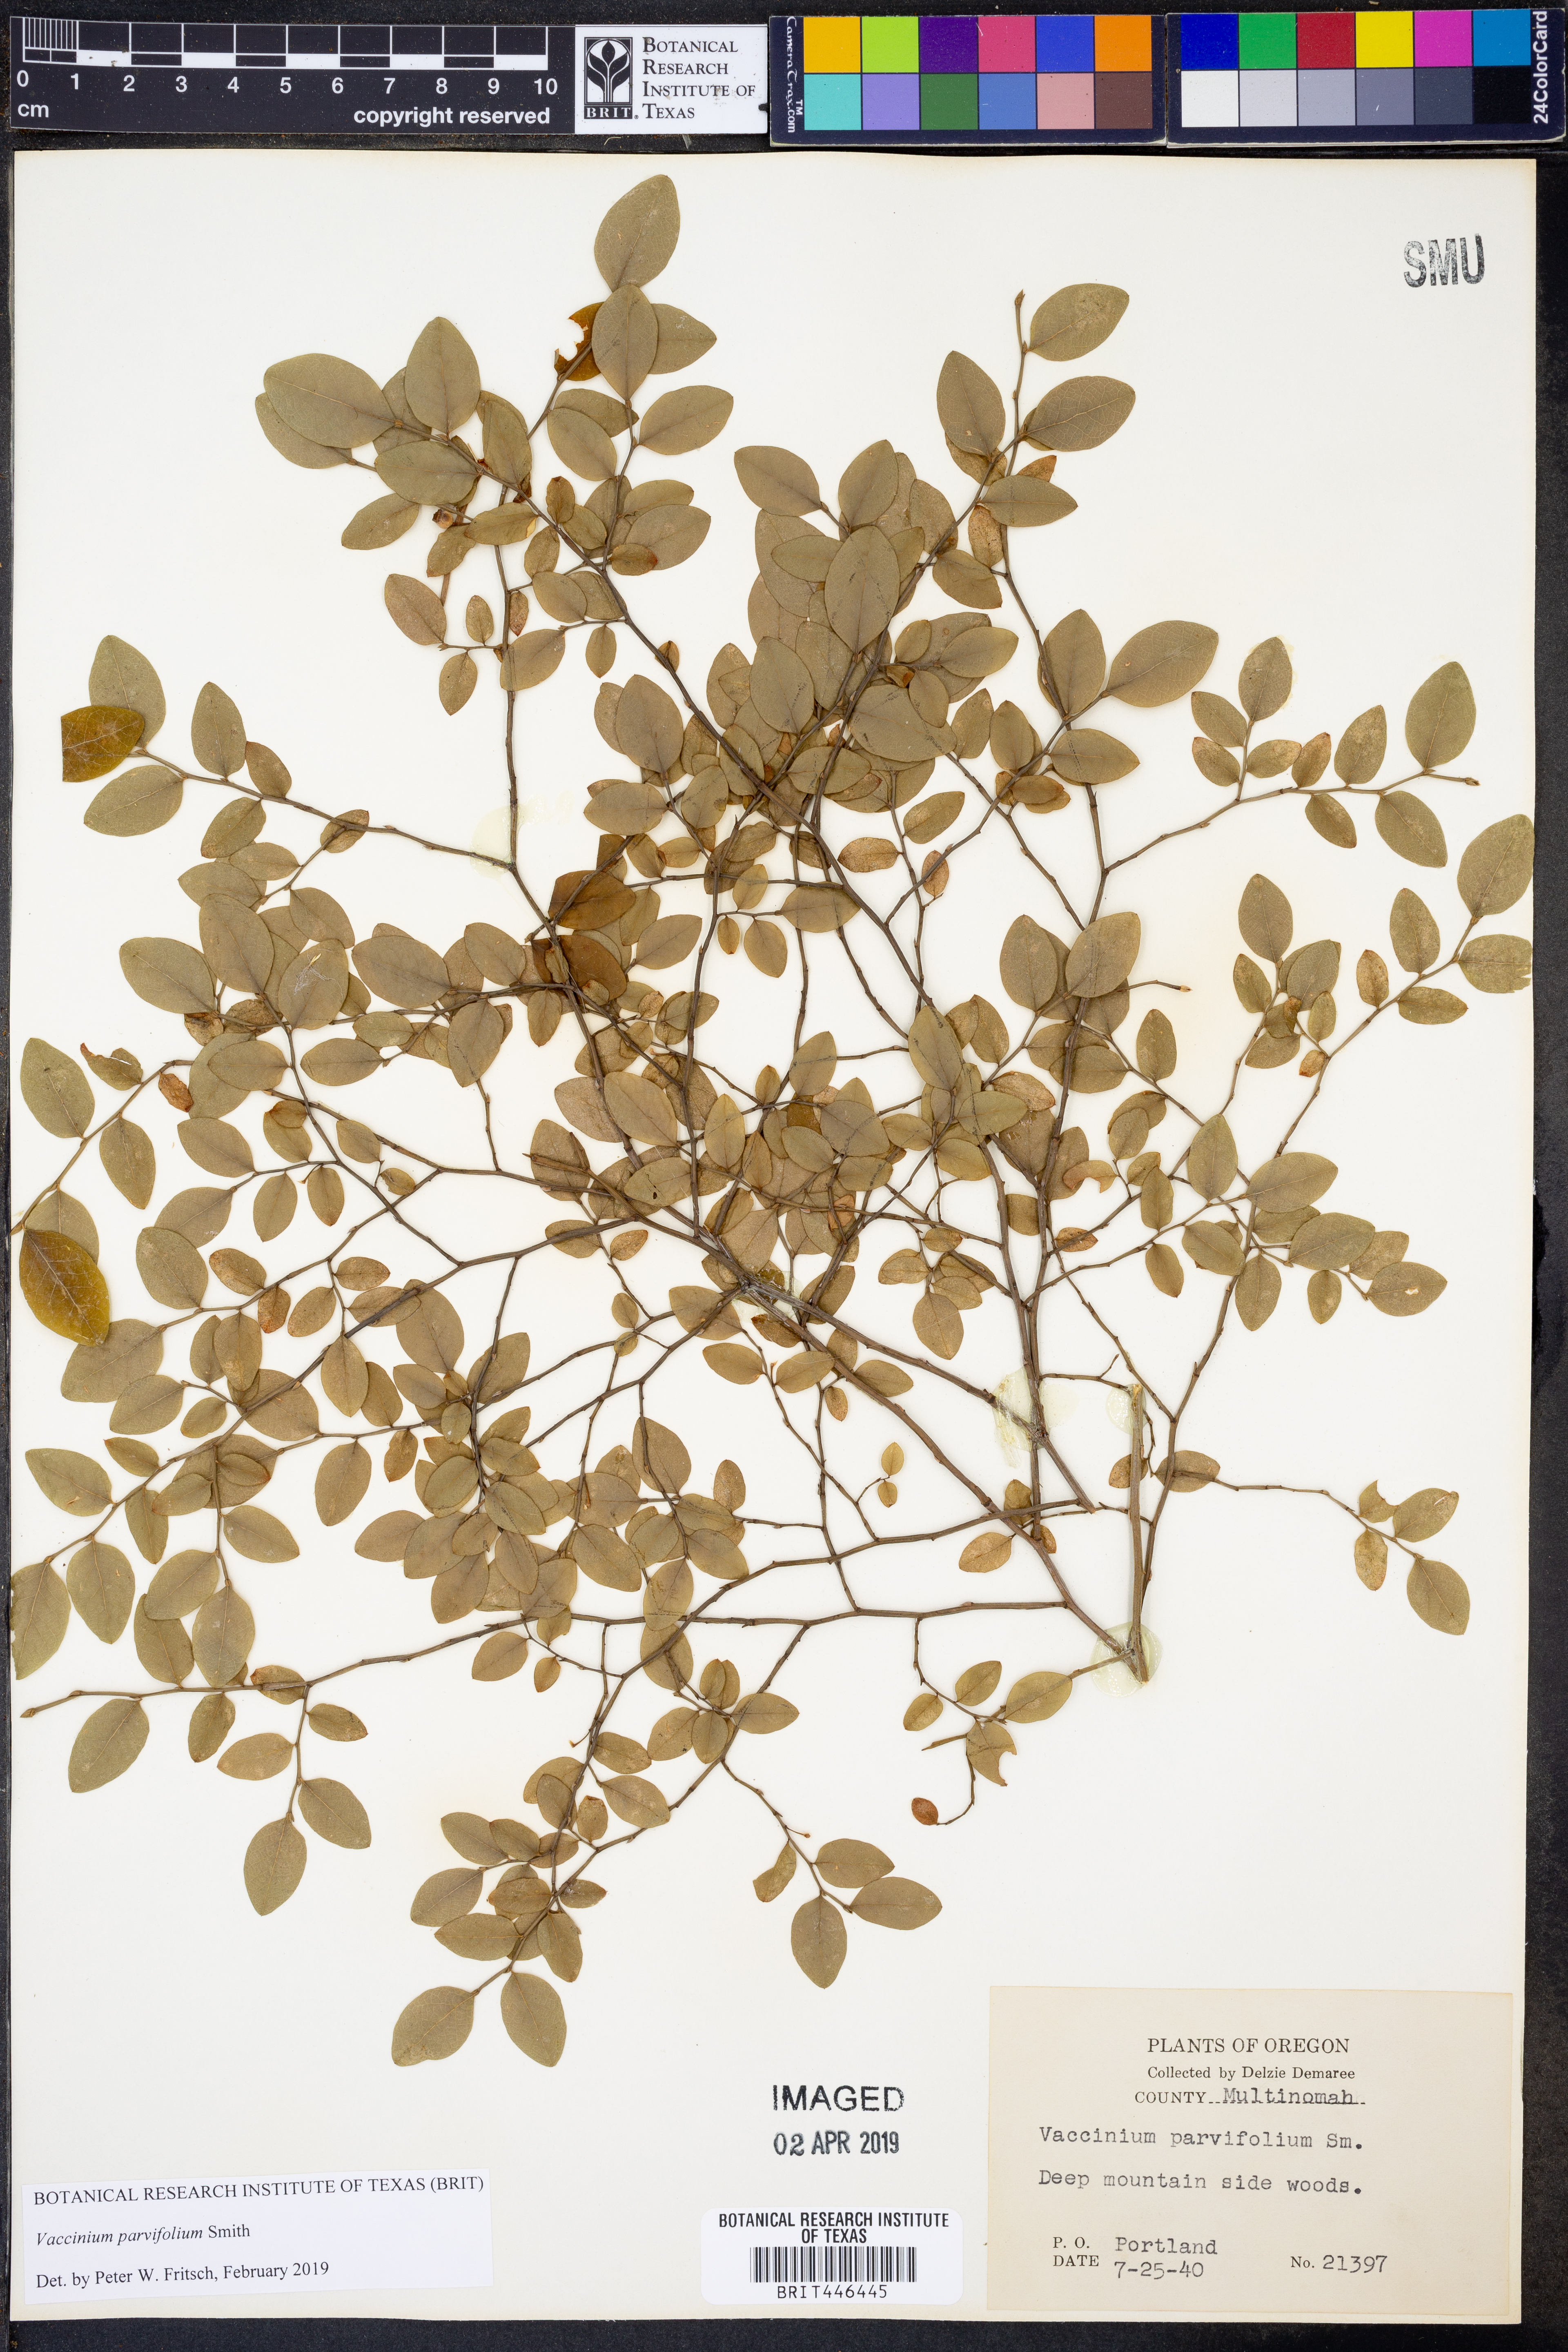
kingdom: Plantae
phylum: Tracheophyta
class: Magnoliopsida
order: Ericales
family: Ericaceae
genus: Vaccinium
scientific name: Vaccinium parvifolium
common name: Red-huckleberry
